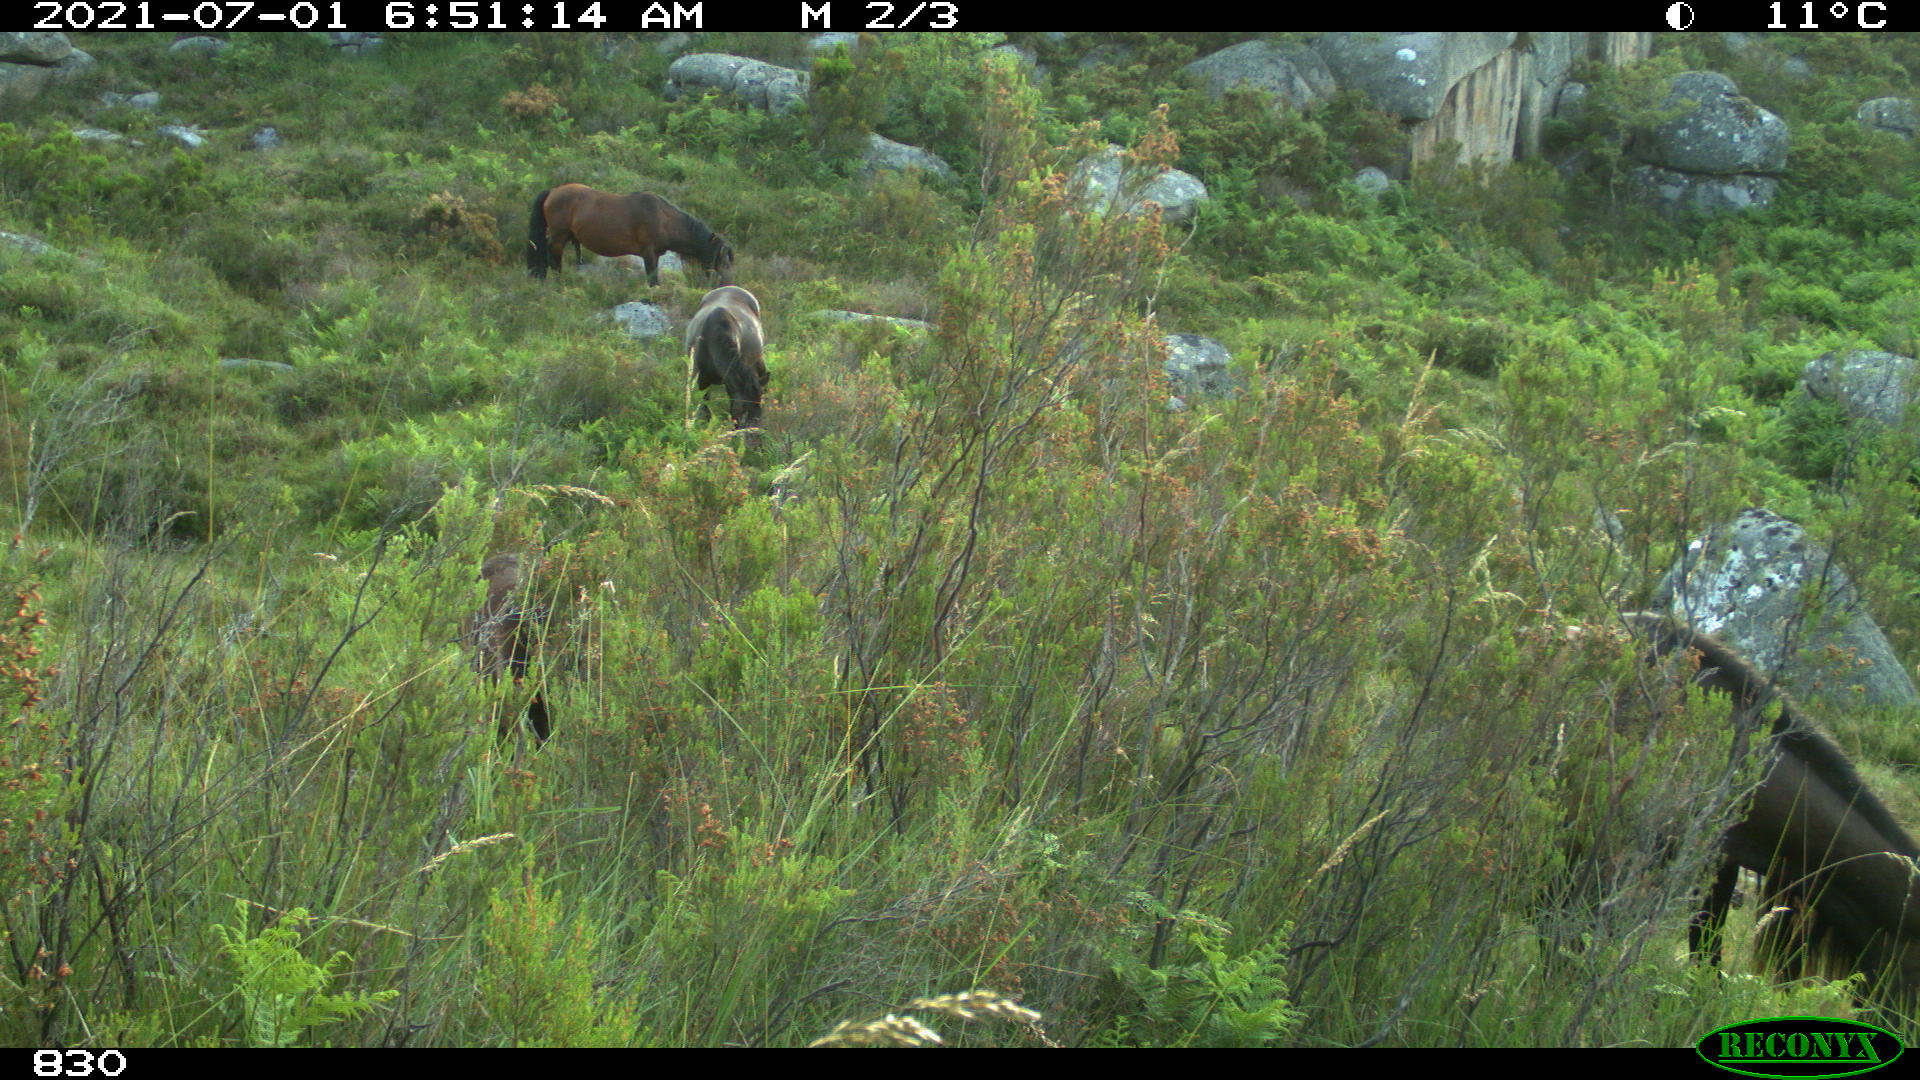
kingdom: Animalia
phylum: Chordata
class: Mammalia
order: Perissodactyla
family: Equidae
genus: Equus
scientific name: Equus caballus
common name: Horse
